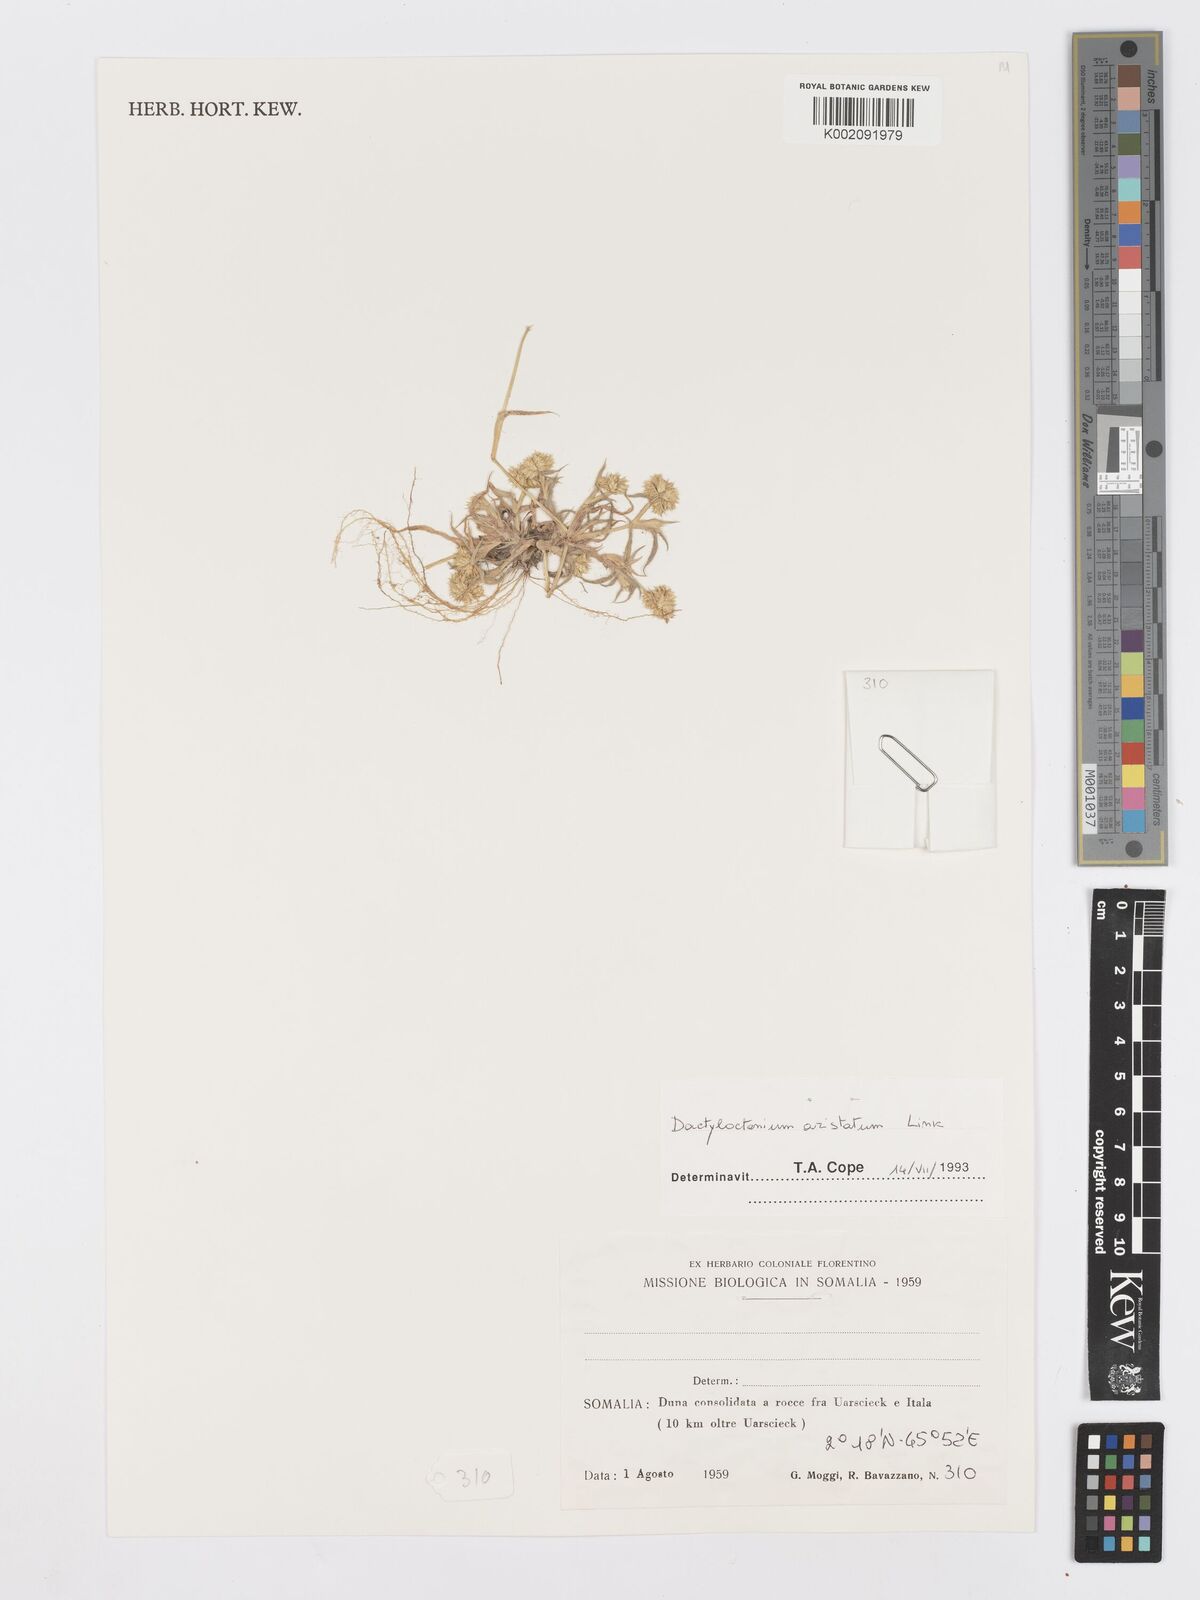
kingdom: Plantae
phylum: Tracheophyta
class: Liliopsida
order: Poales
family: Poaceae
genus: Dactyloctenium
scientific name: Dactyloctenium aristatum
